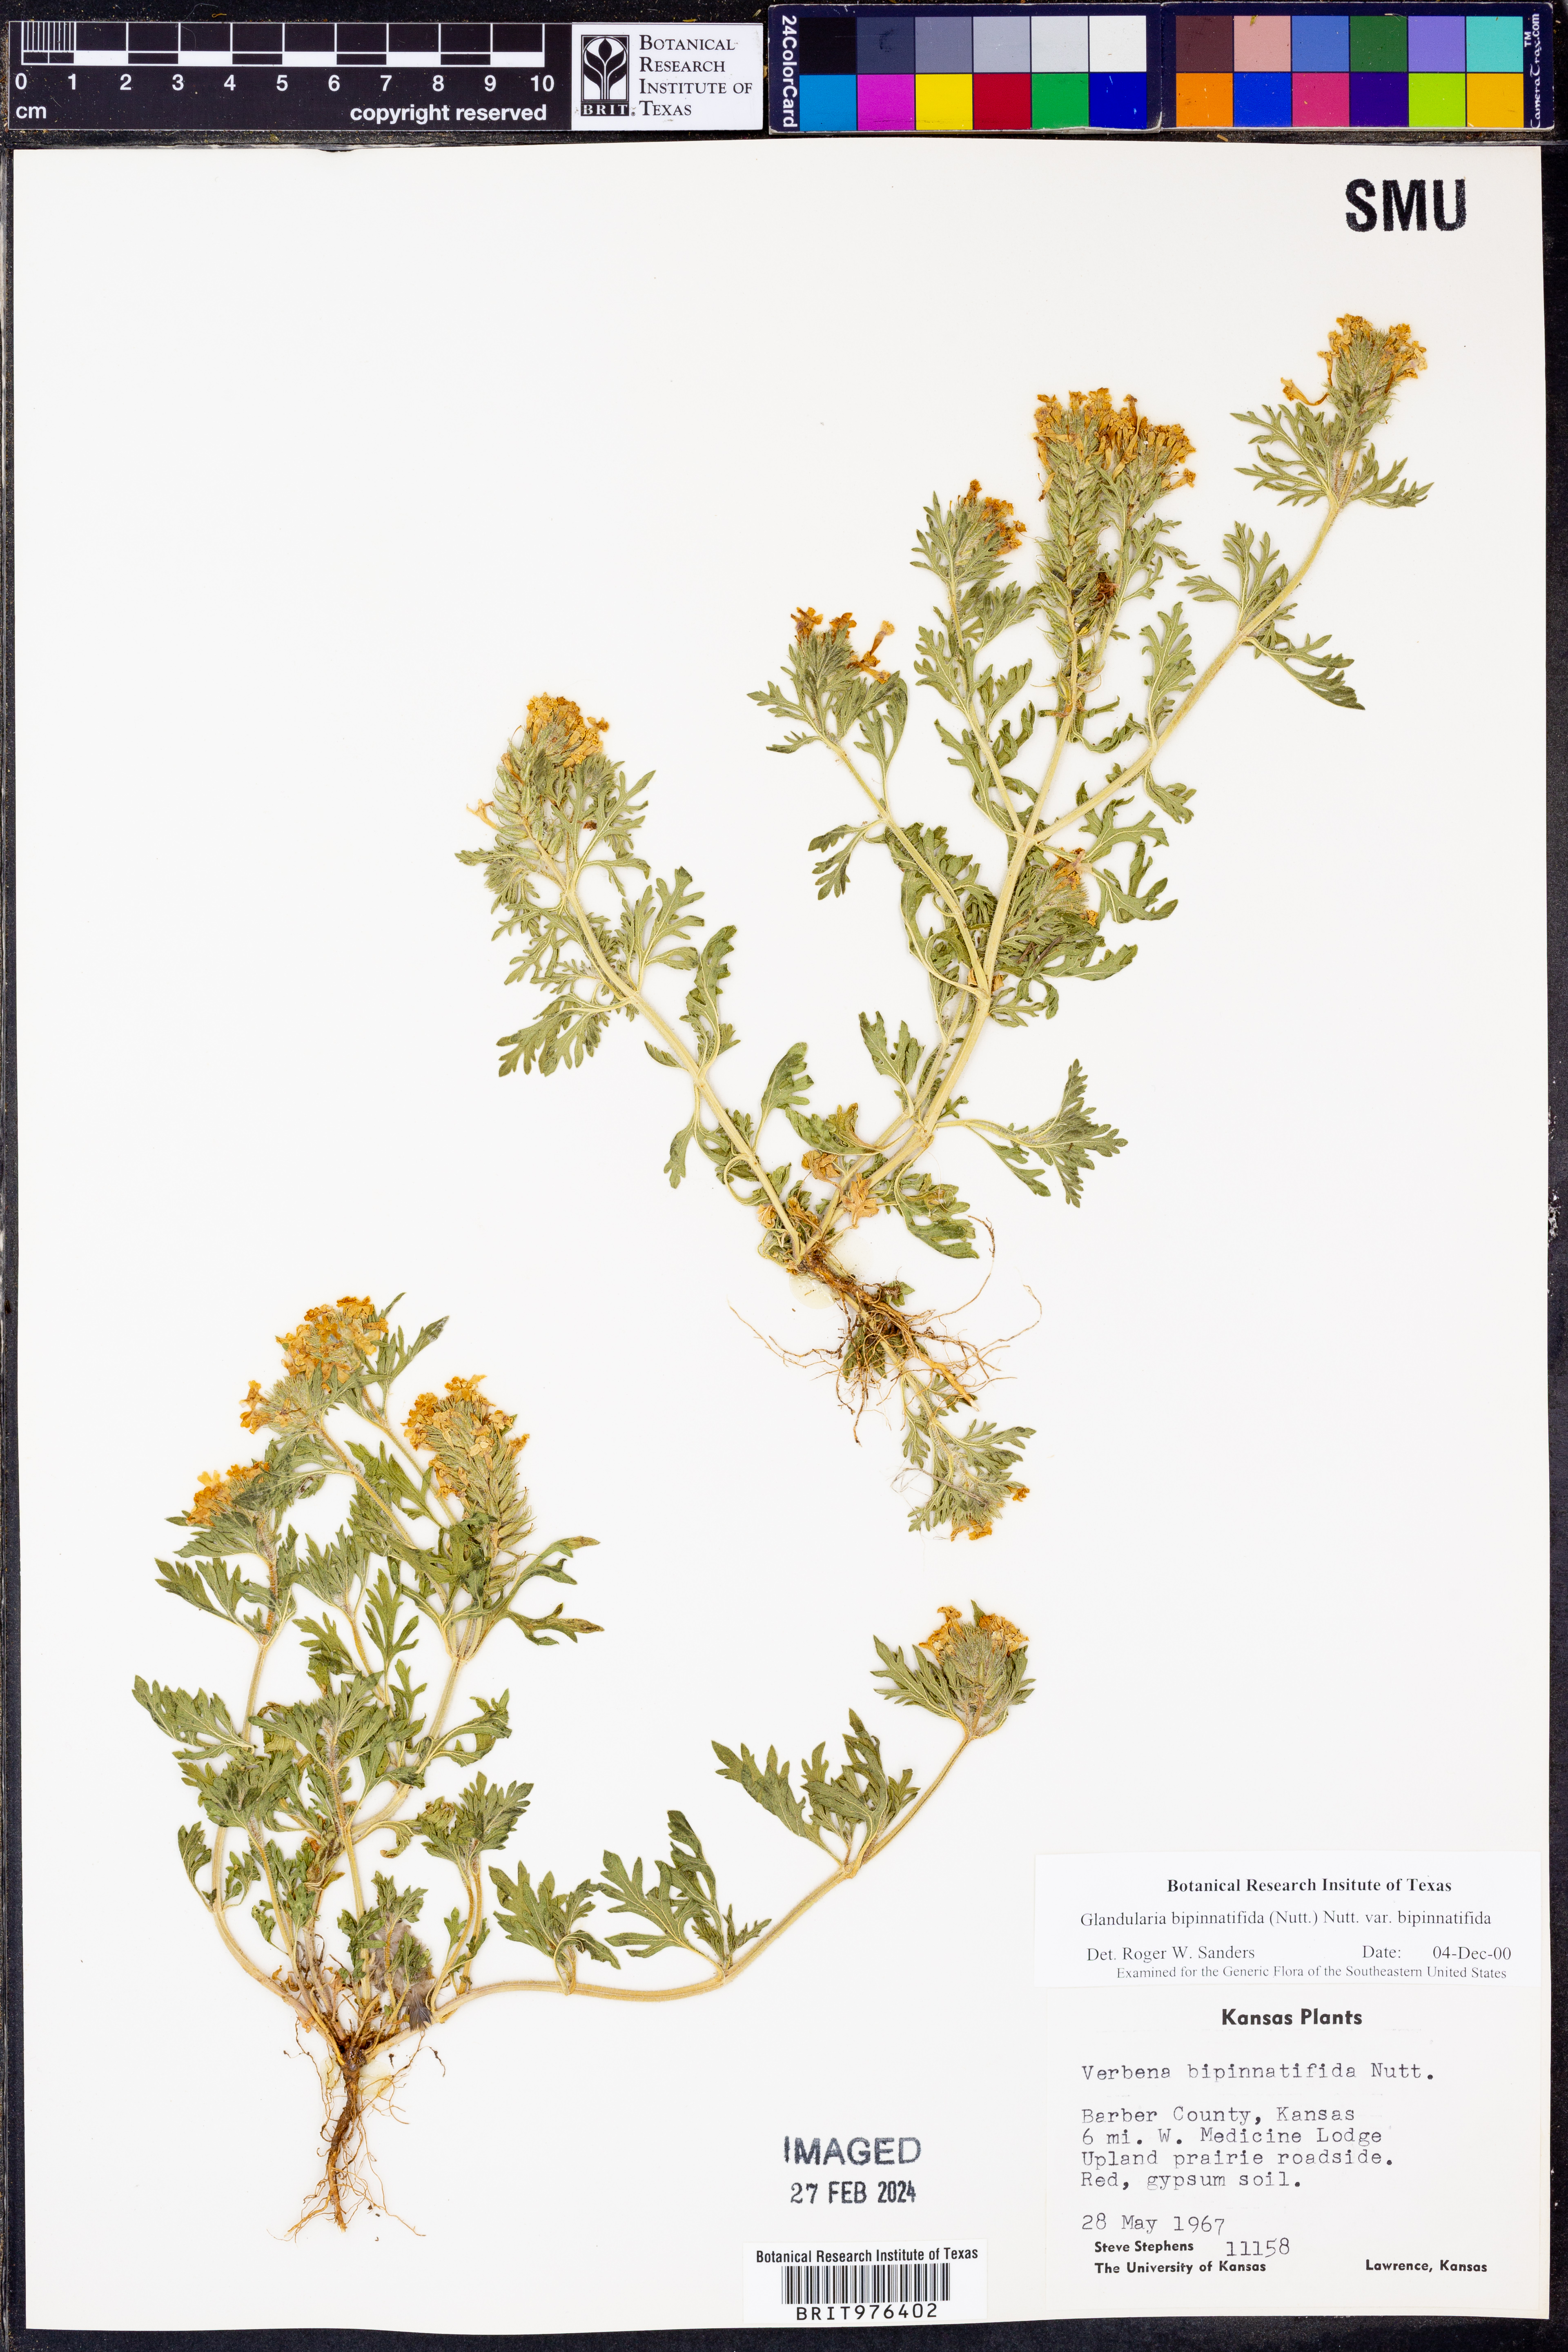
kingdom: Plantae
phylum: Tracheophyta
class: Magnoliopsida
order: Lamiales
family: Verbenaceae
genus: Verbena
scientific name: Verbena bipinnatifida
